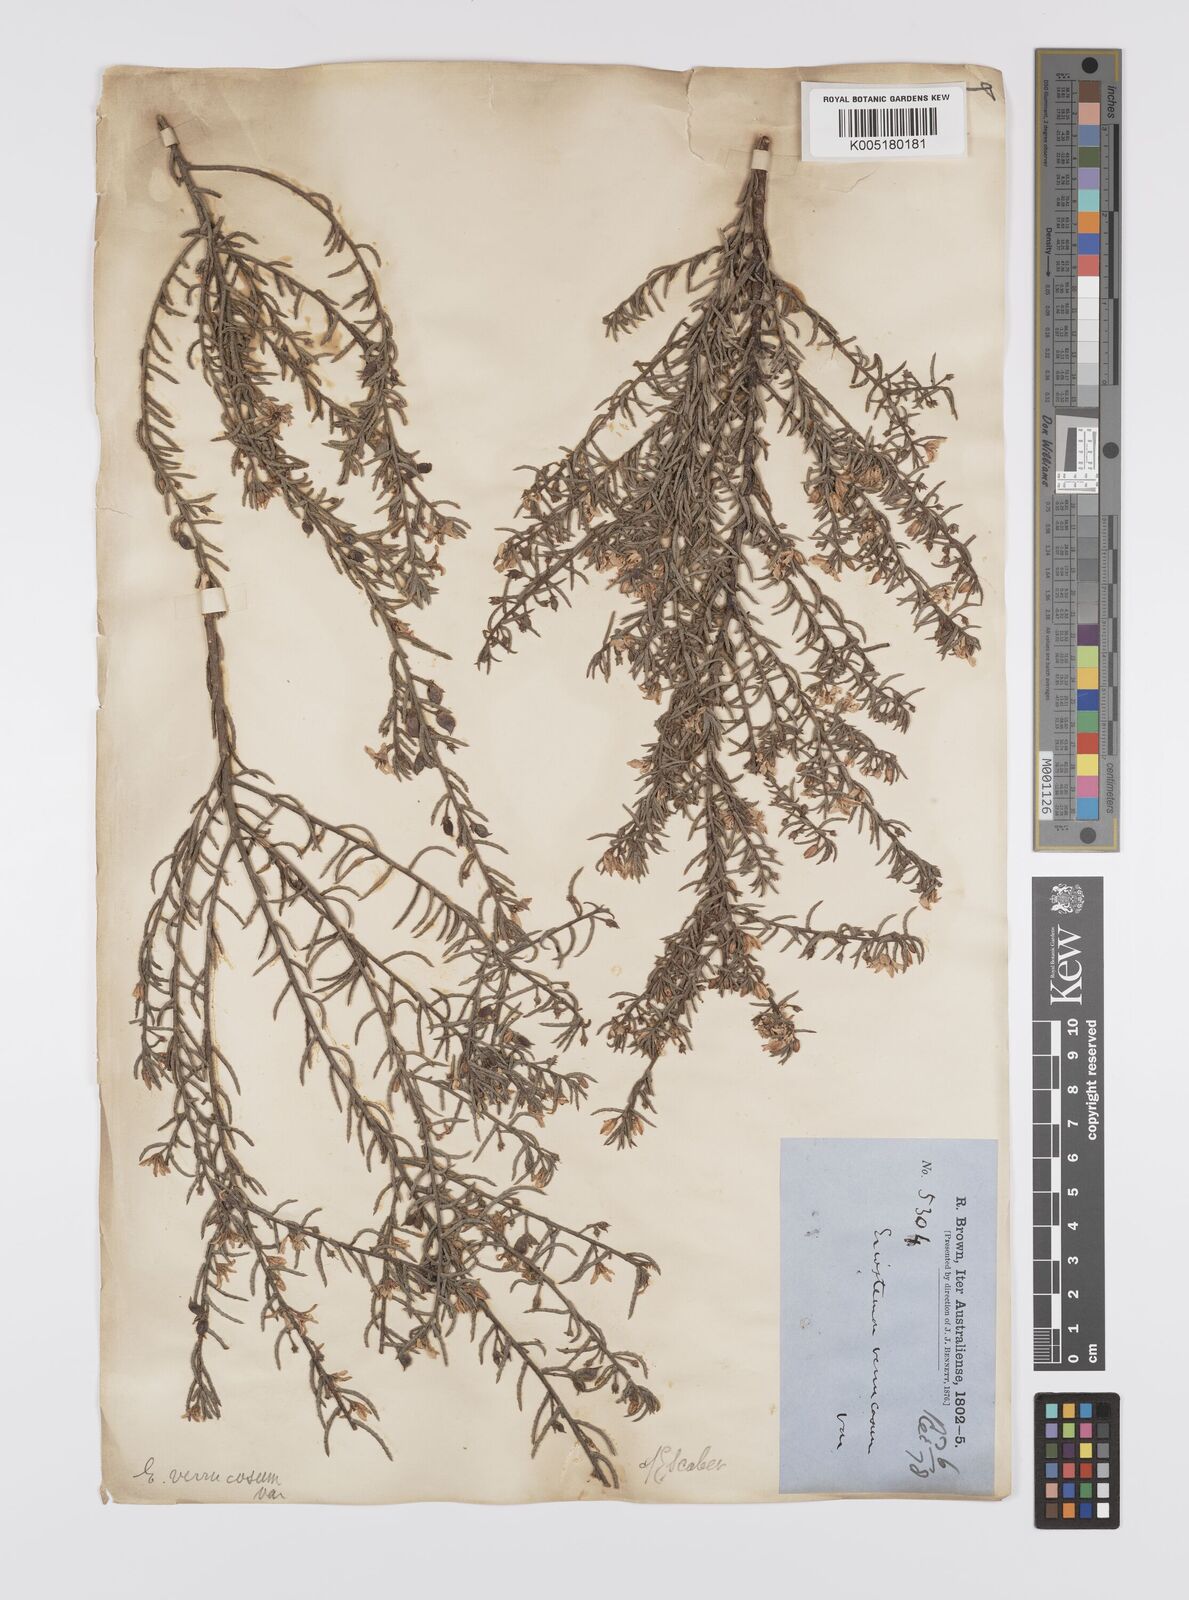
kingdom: Plantae
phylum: Tracheophyta
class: Magnoliopsida
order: Sapindales
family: Rutaceae
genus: Philotheca
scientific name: Philotheca verrucosa
